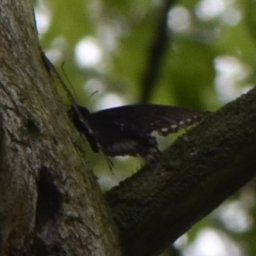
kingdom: Animalia
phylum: Arthropoda
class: Insecta
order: Lepidoptera
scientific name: Lepidoptera
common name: Butterflies
